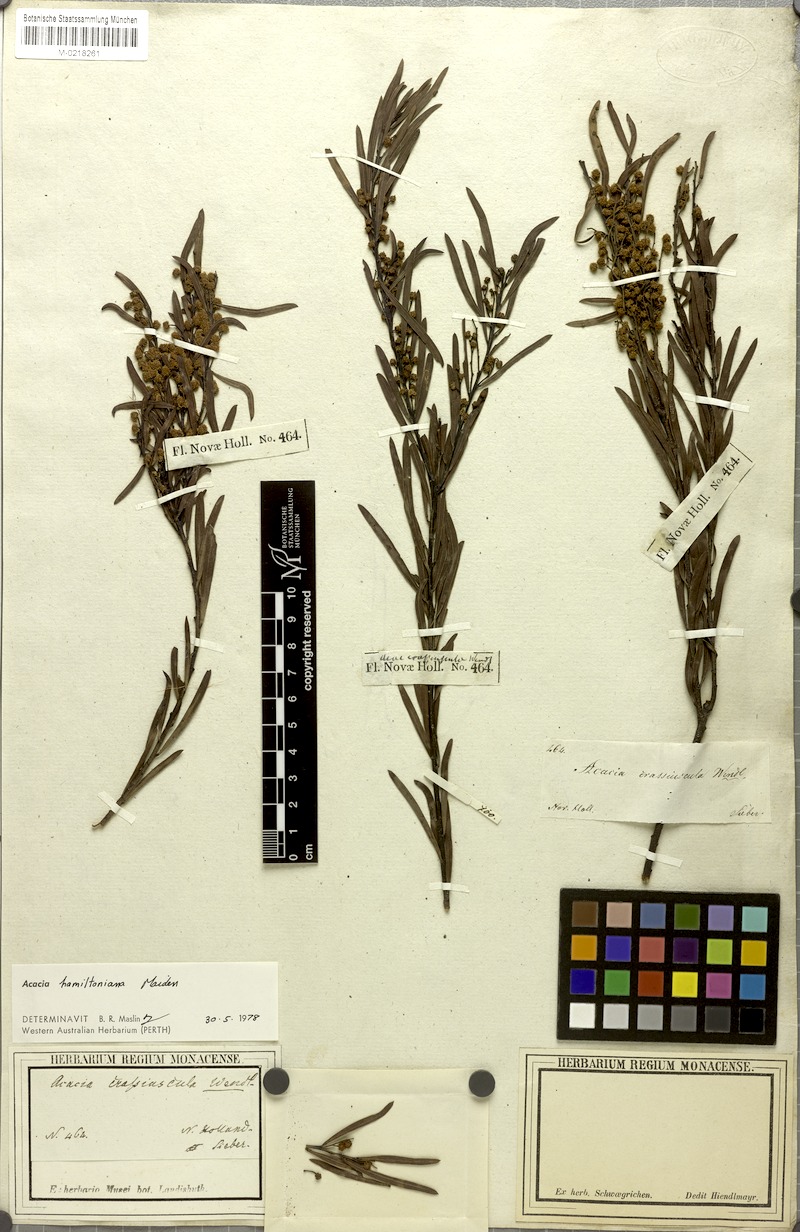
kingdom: Plantae
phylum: Tracheophyta
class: Magnoliopsida
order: Fabales
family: Fabaceae
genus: Acacia
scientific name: Acacia hamiltoniana
